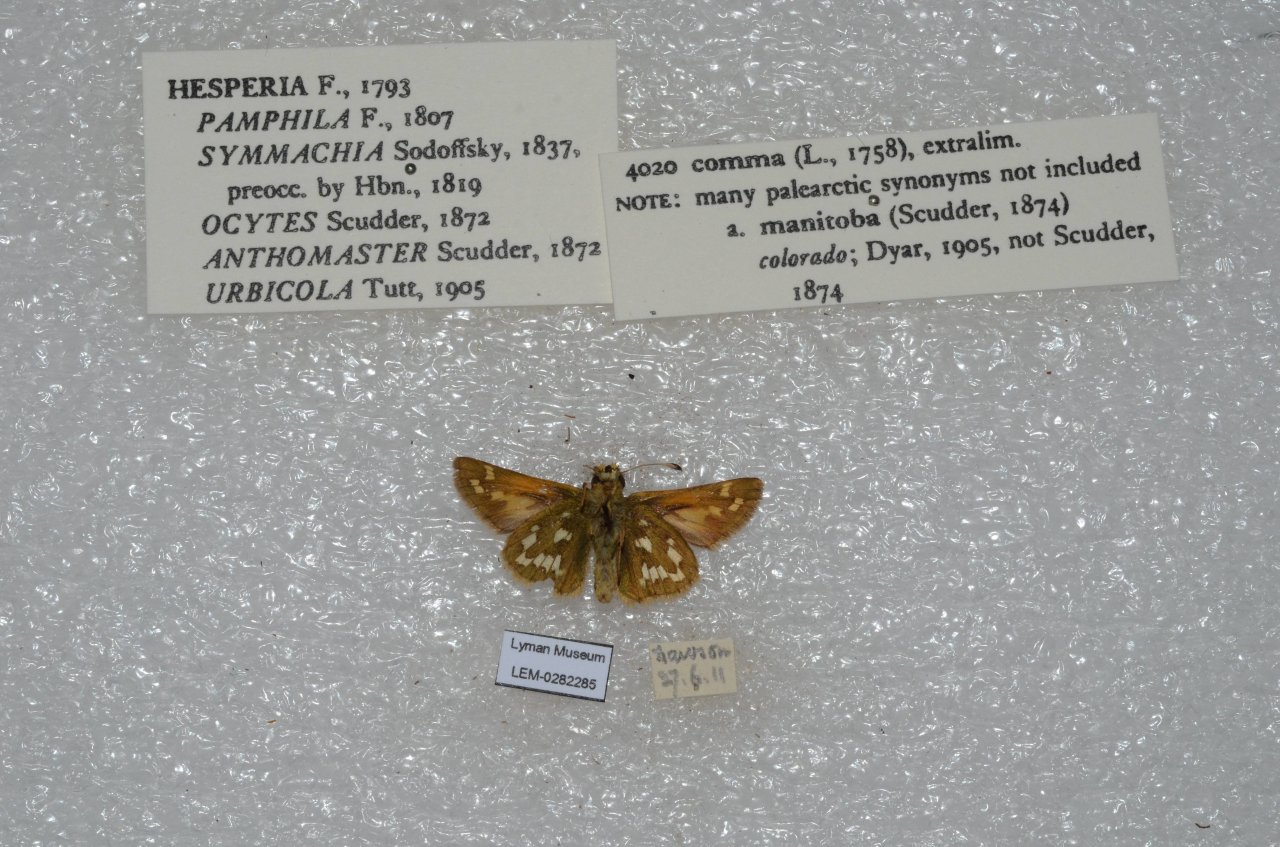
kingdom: Animalia
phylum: Arthropoda
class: Insecta
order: Lepidoptera
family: Hesperiidae
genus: Hesperia
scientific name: Hesperia comma
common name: Common Branded Skipper
